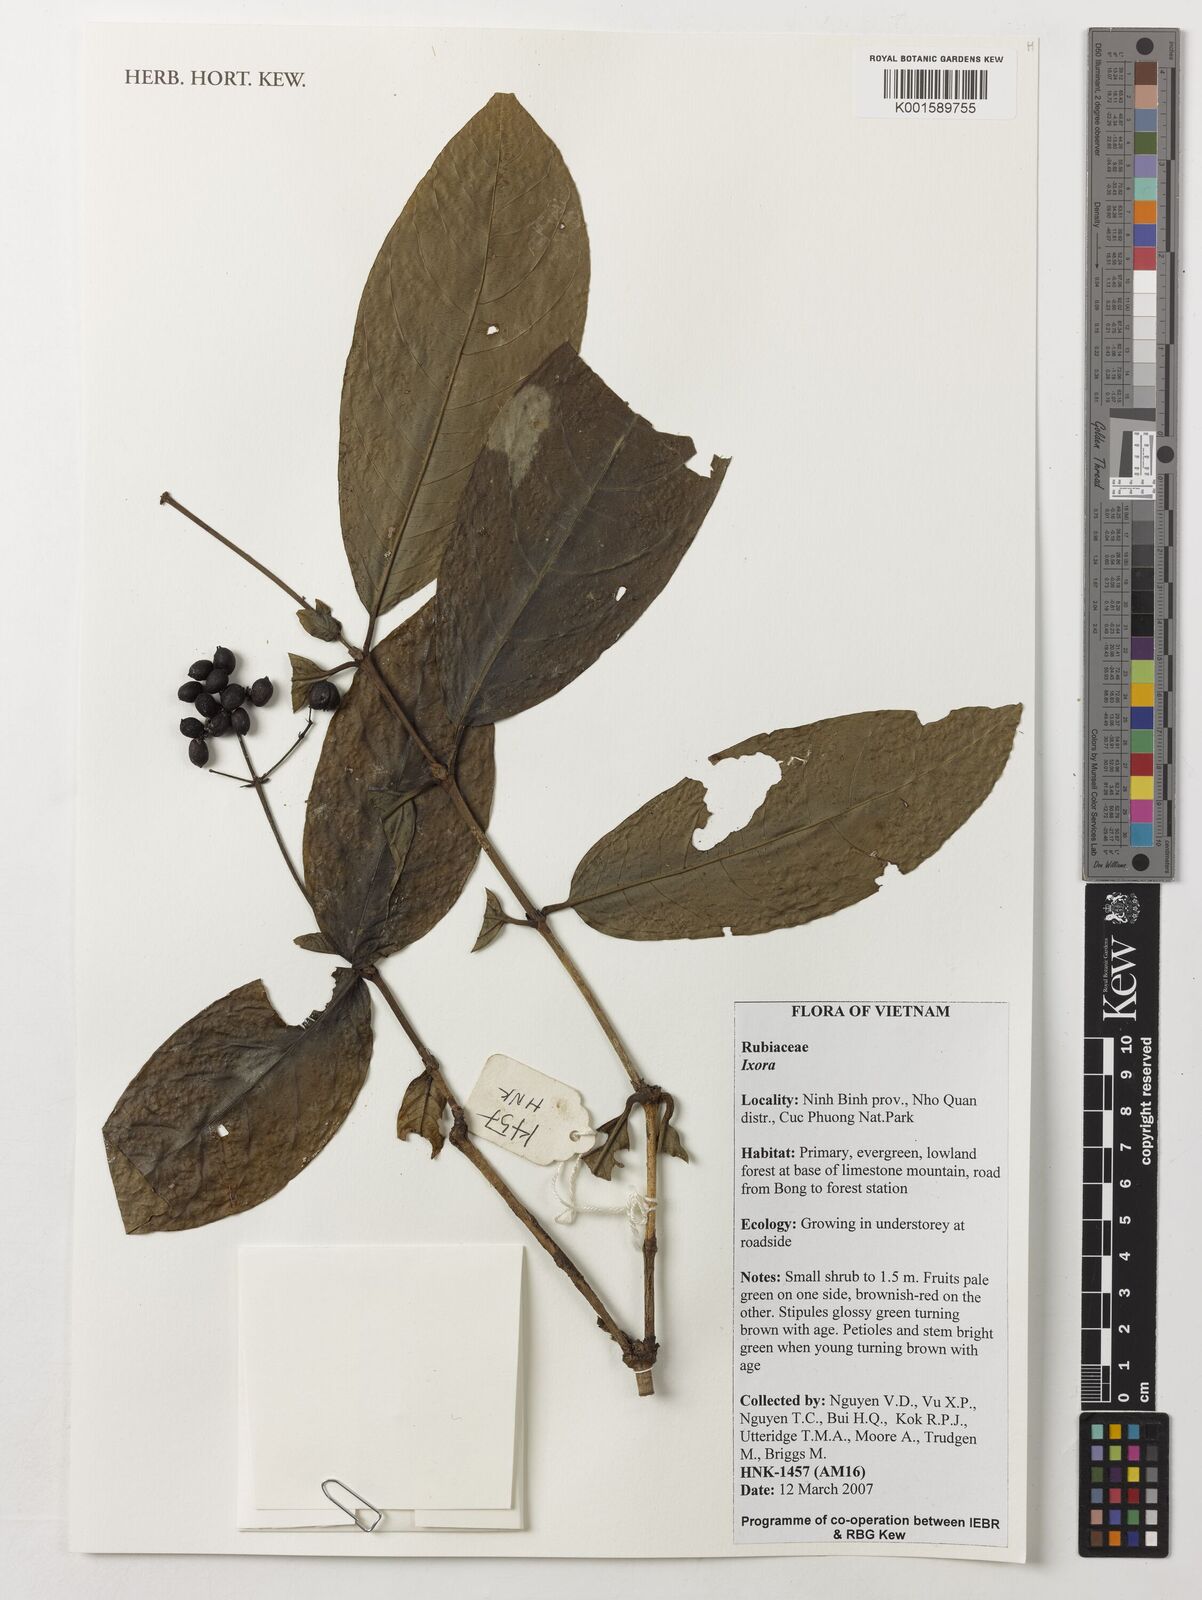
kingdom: Plantae
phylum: Tracheophyta
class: Magnoliopsida
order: Gentianales
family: Rubiaceae
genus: Ixora
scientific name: Ixora
